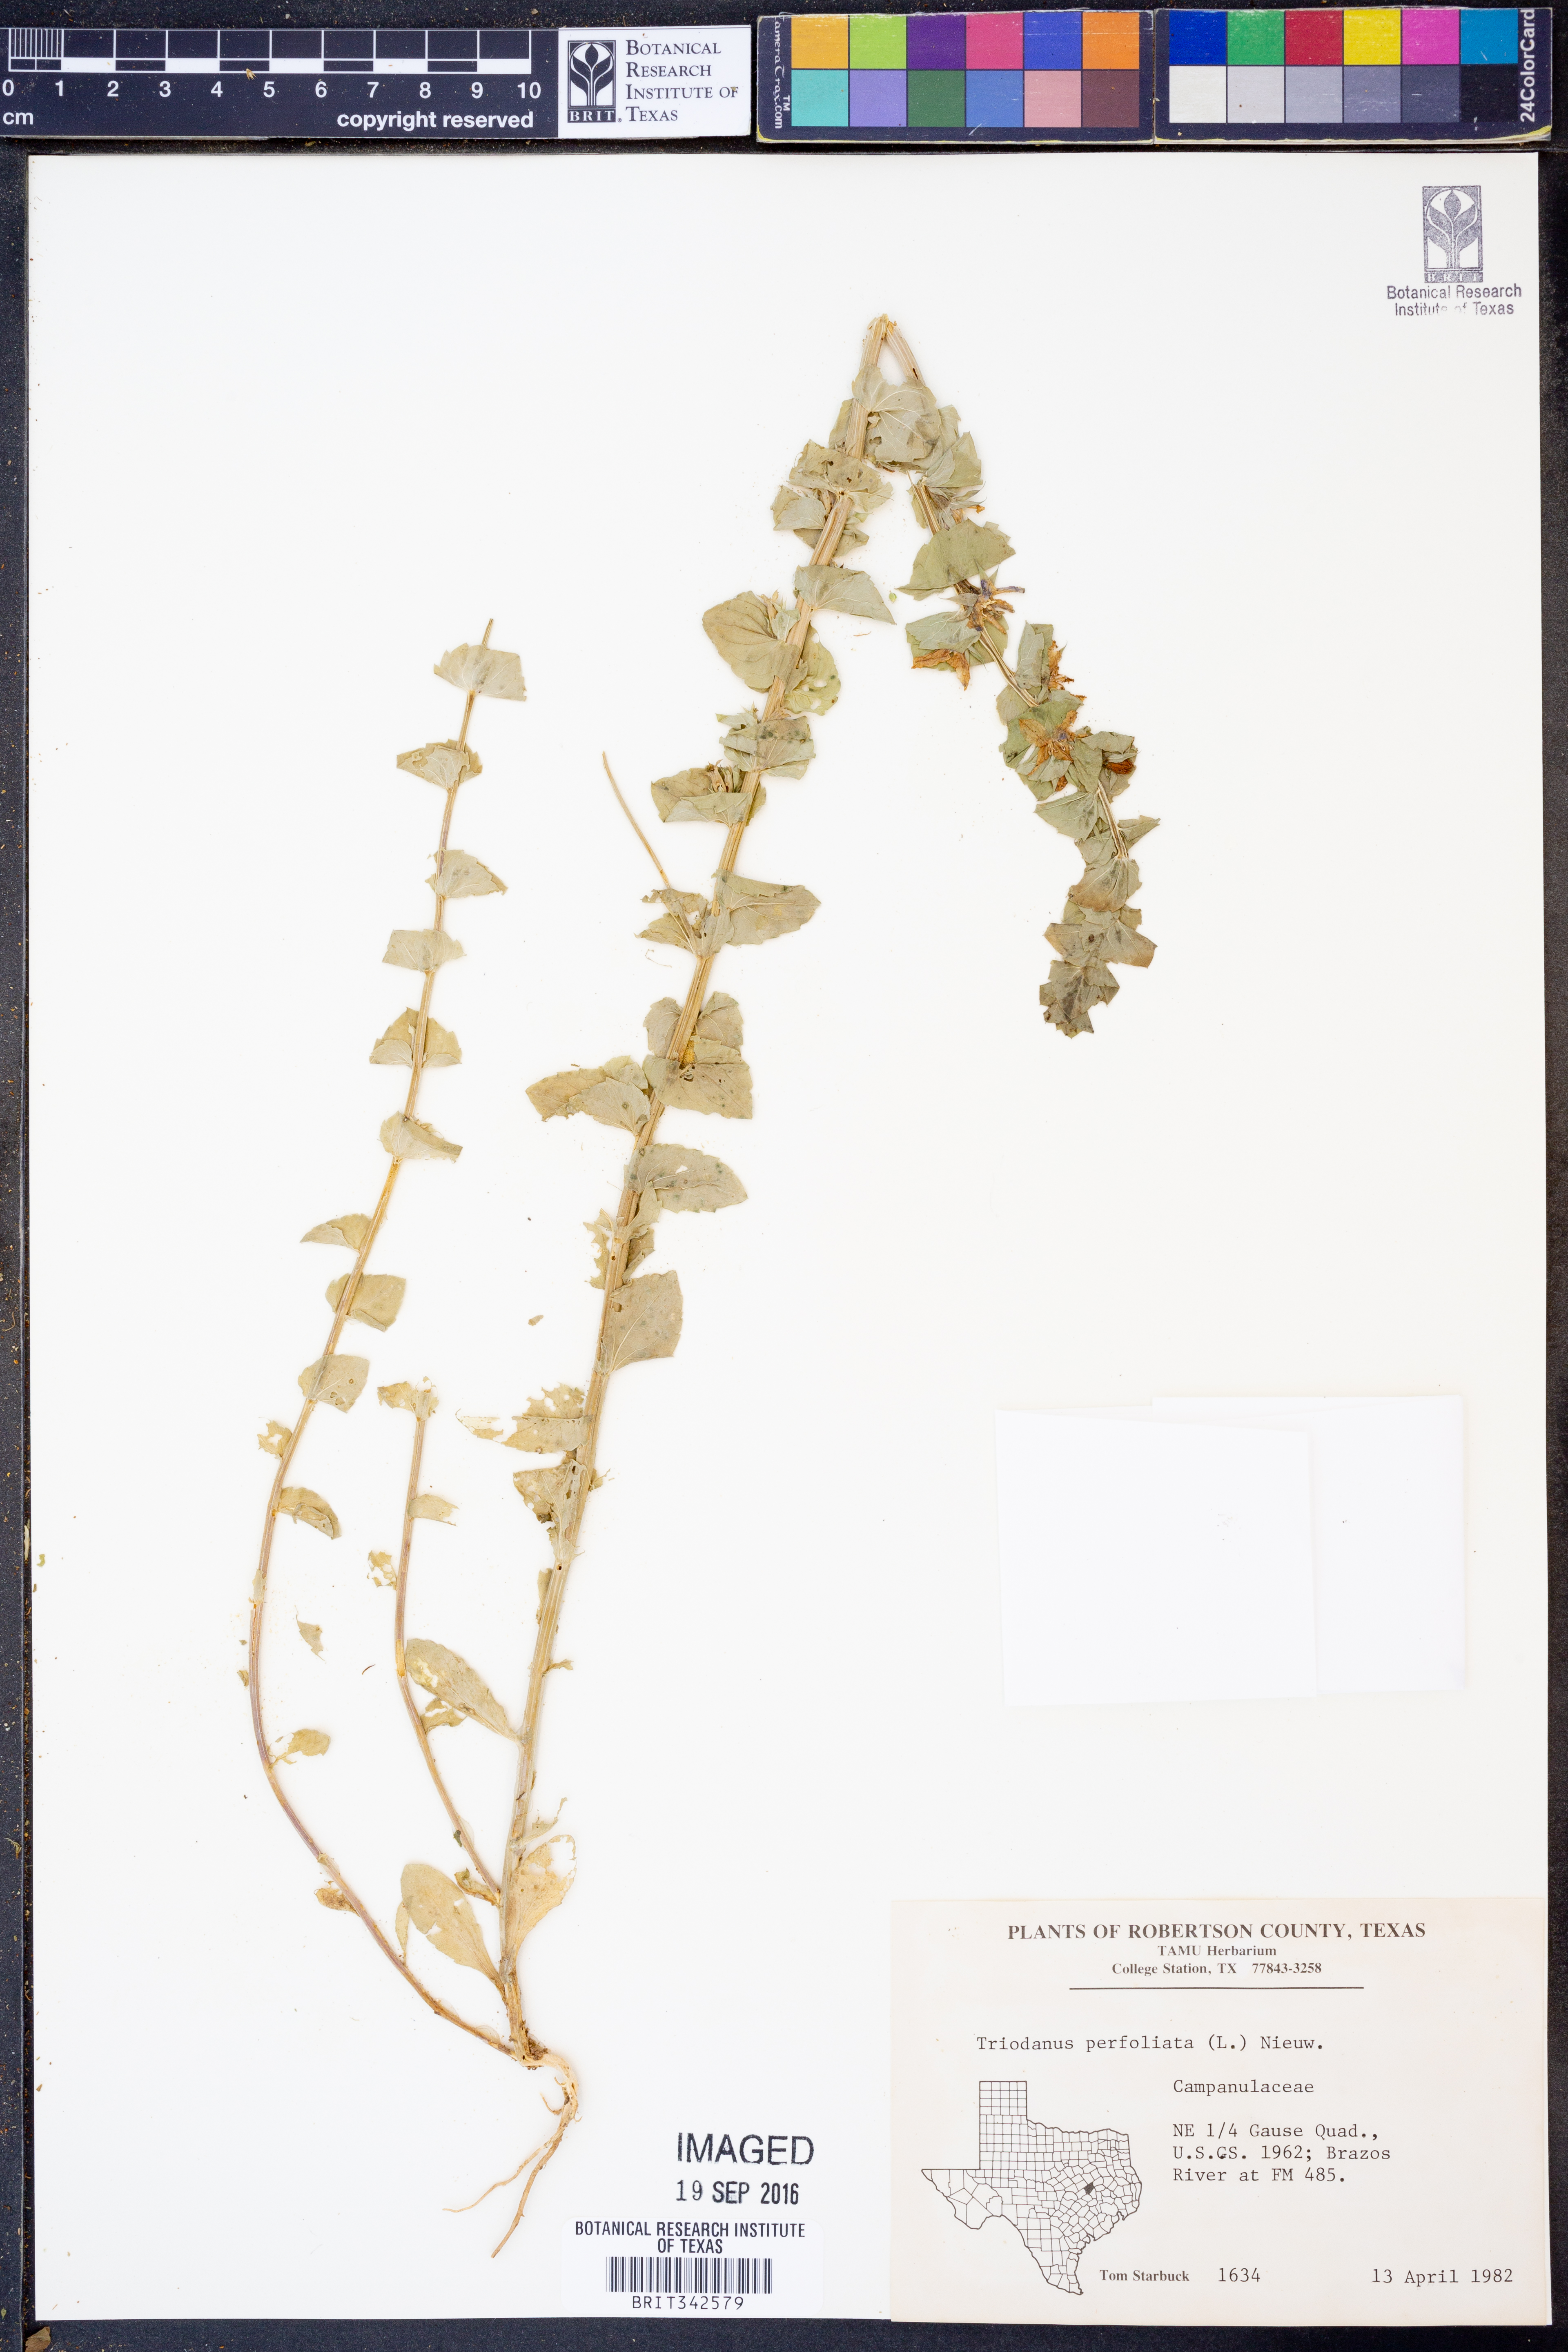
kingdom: Plantae
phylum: Tracheophyta
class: Magnoliopsida
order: Asterales
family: Campanulaceae
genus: Triodanis
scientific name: Triodanis perfoliata
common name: Clasping venus' looking-glass
